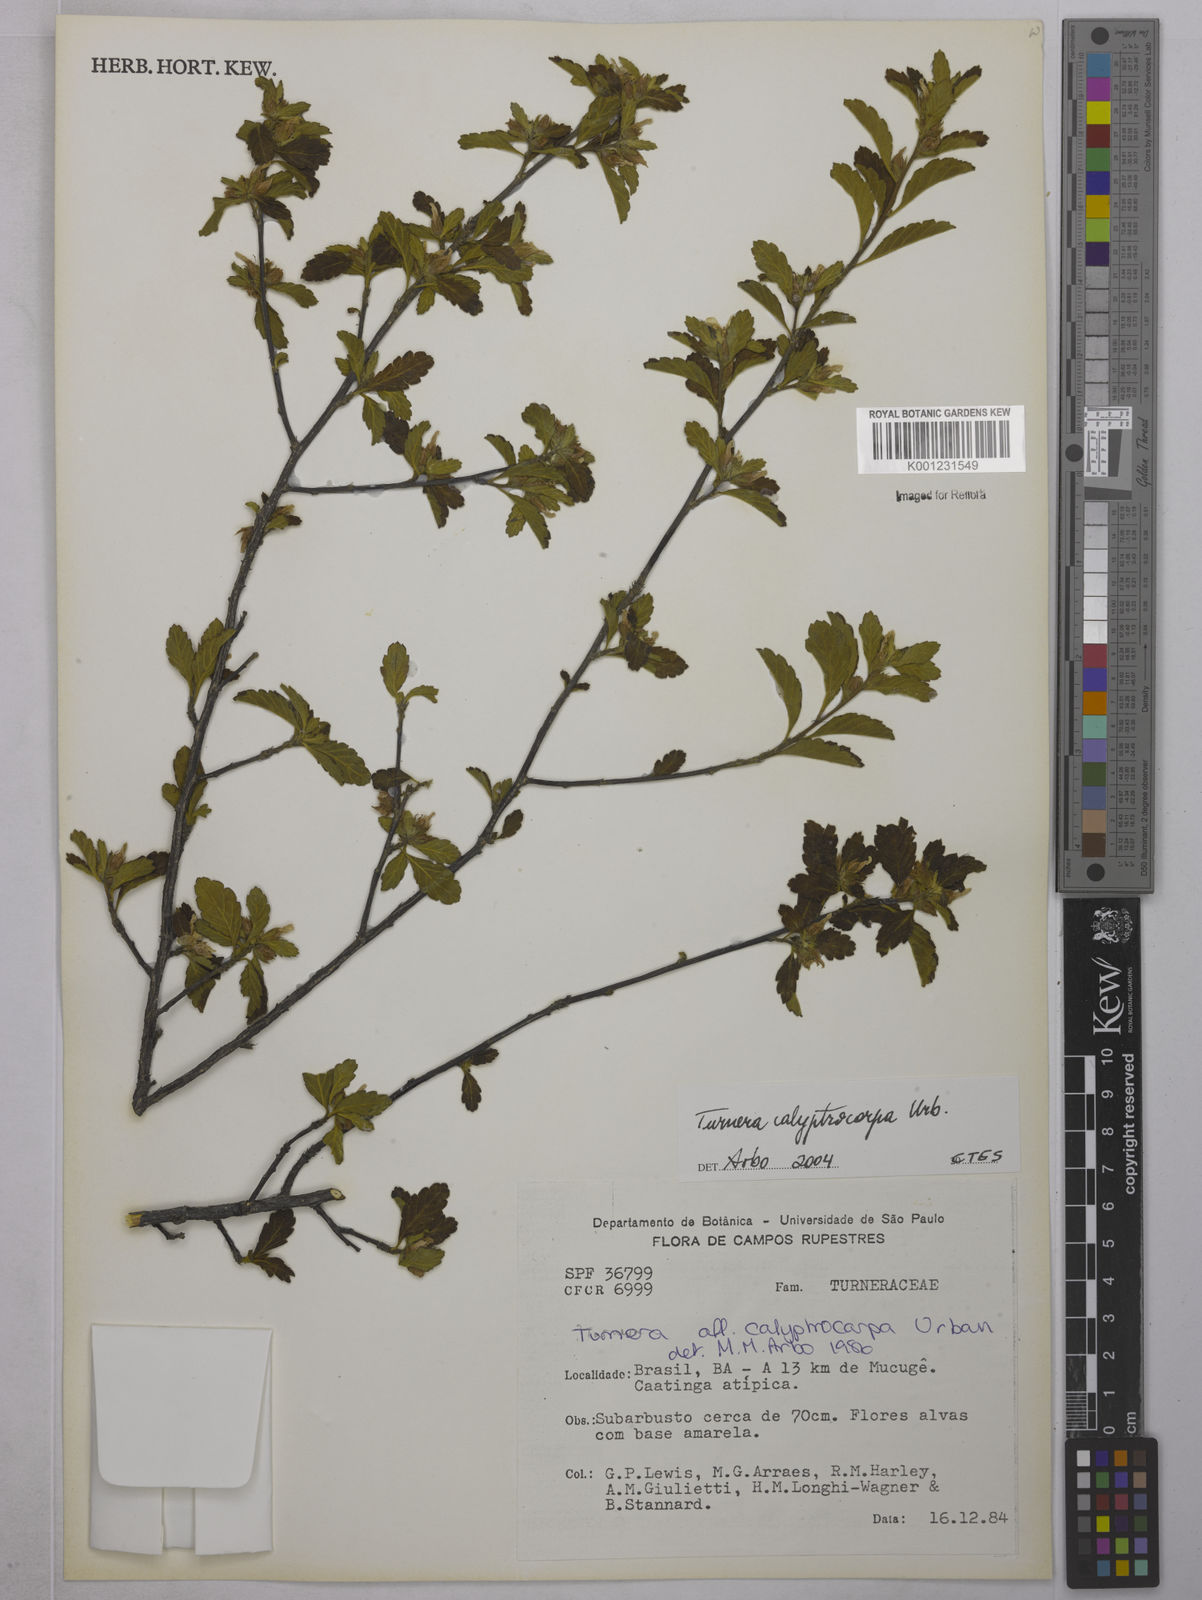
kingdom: Plantae
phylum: Tracheophyta
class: Magnoliopsida
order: Malpighiales
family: Turneraceae
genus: Oxossia
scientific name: Oxossia calyptrocarpa
